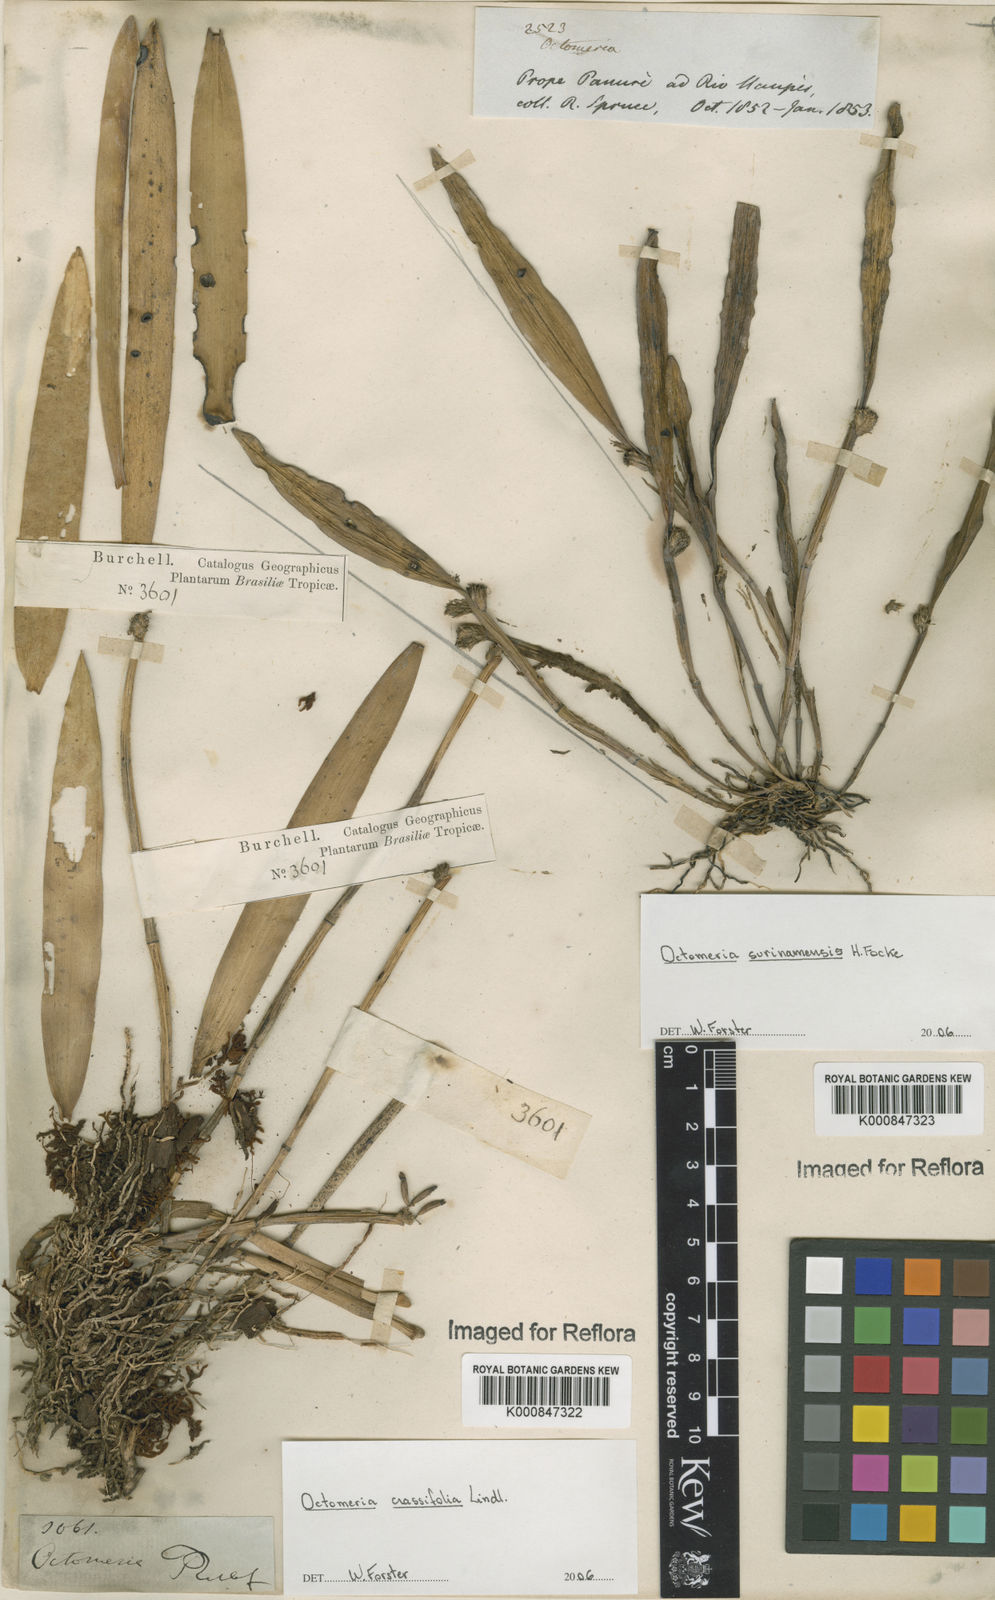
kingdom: Plantae
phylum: Tracheophyta
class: Liliopsida
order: Asparagales
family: Orchidaceae
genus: Octomeria
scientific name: Octomeria crassifolia
